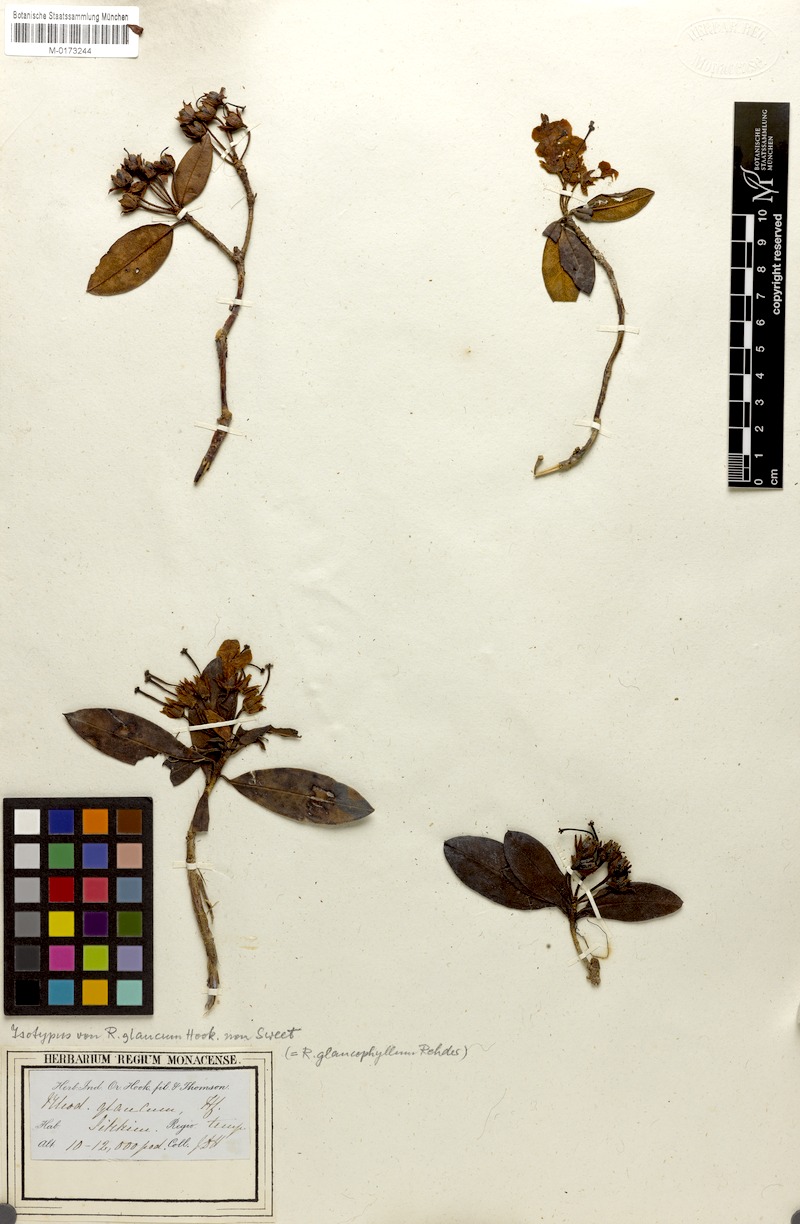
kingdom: Plantae
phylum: Tracheophyta
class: Magnoliopsida
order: Ericales
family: Ericaceae
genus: Rhododendron
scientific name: Rhododendron glaucophyllum
